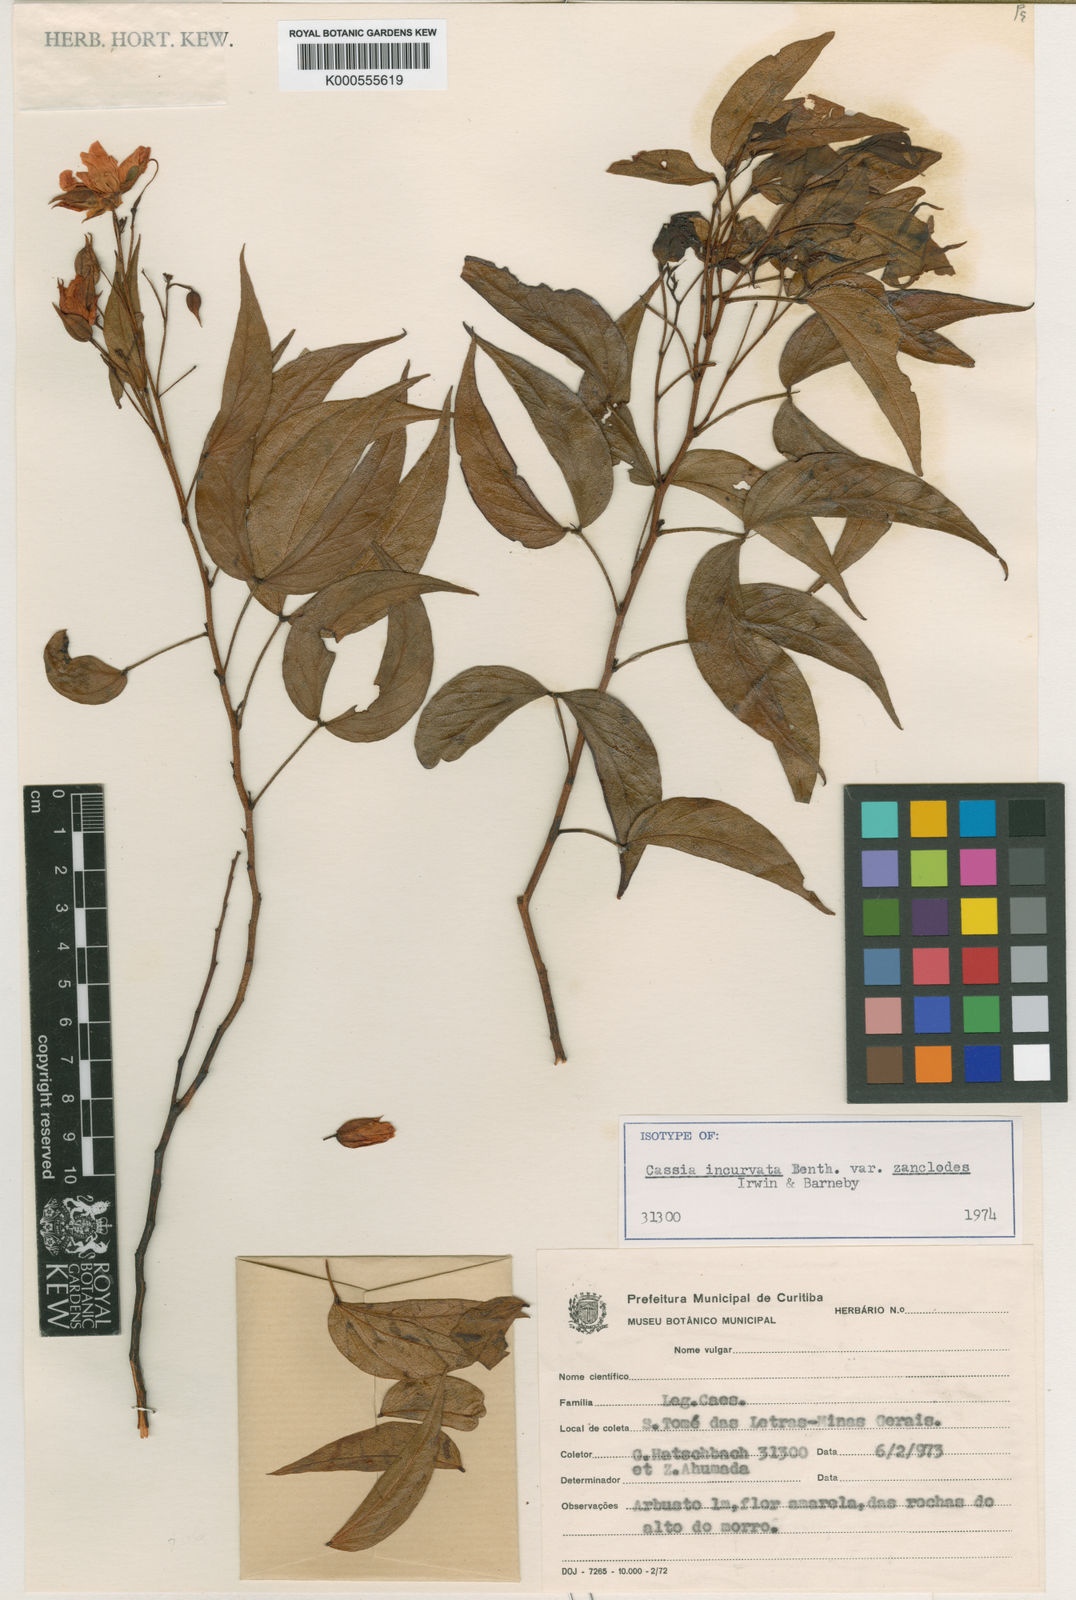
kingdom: Plantae
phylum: Tracheophyta
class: Magnoliopsida
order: Fabales
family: Fabaceae
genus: Chamaecrista
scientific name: Chamaecrista incurvata
